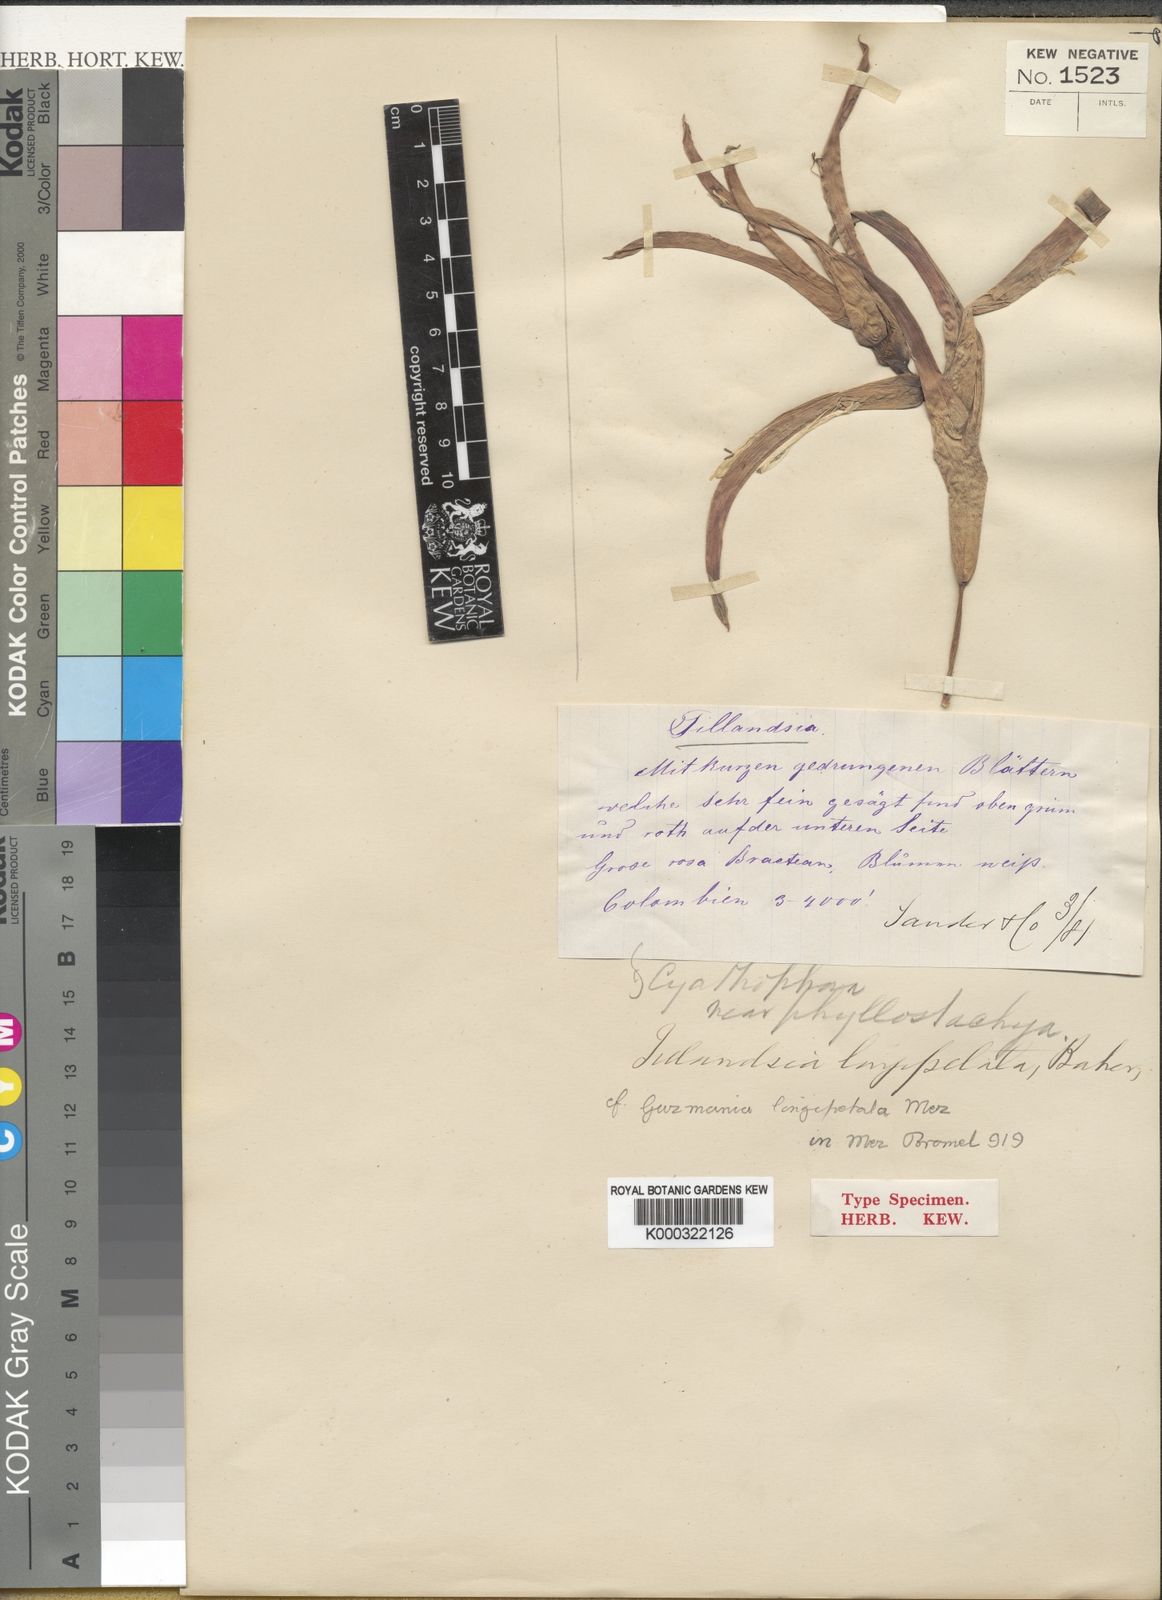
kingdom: Plantae
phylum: Tracheophyta
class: Liliopsida
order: Poales
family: Bromeliaceae
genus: Guzmania
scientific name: Guzmania longipetala
